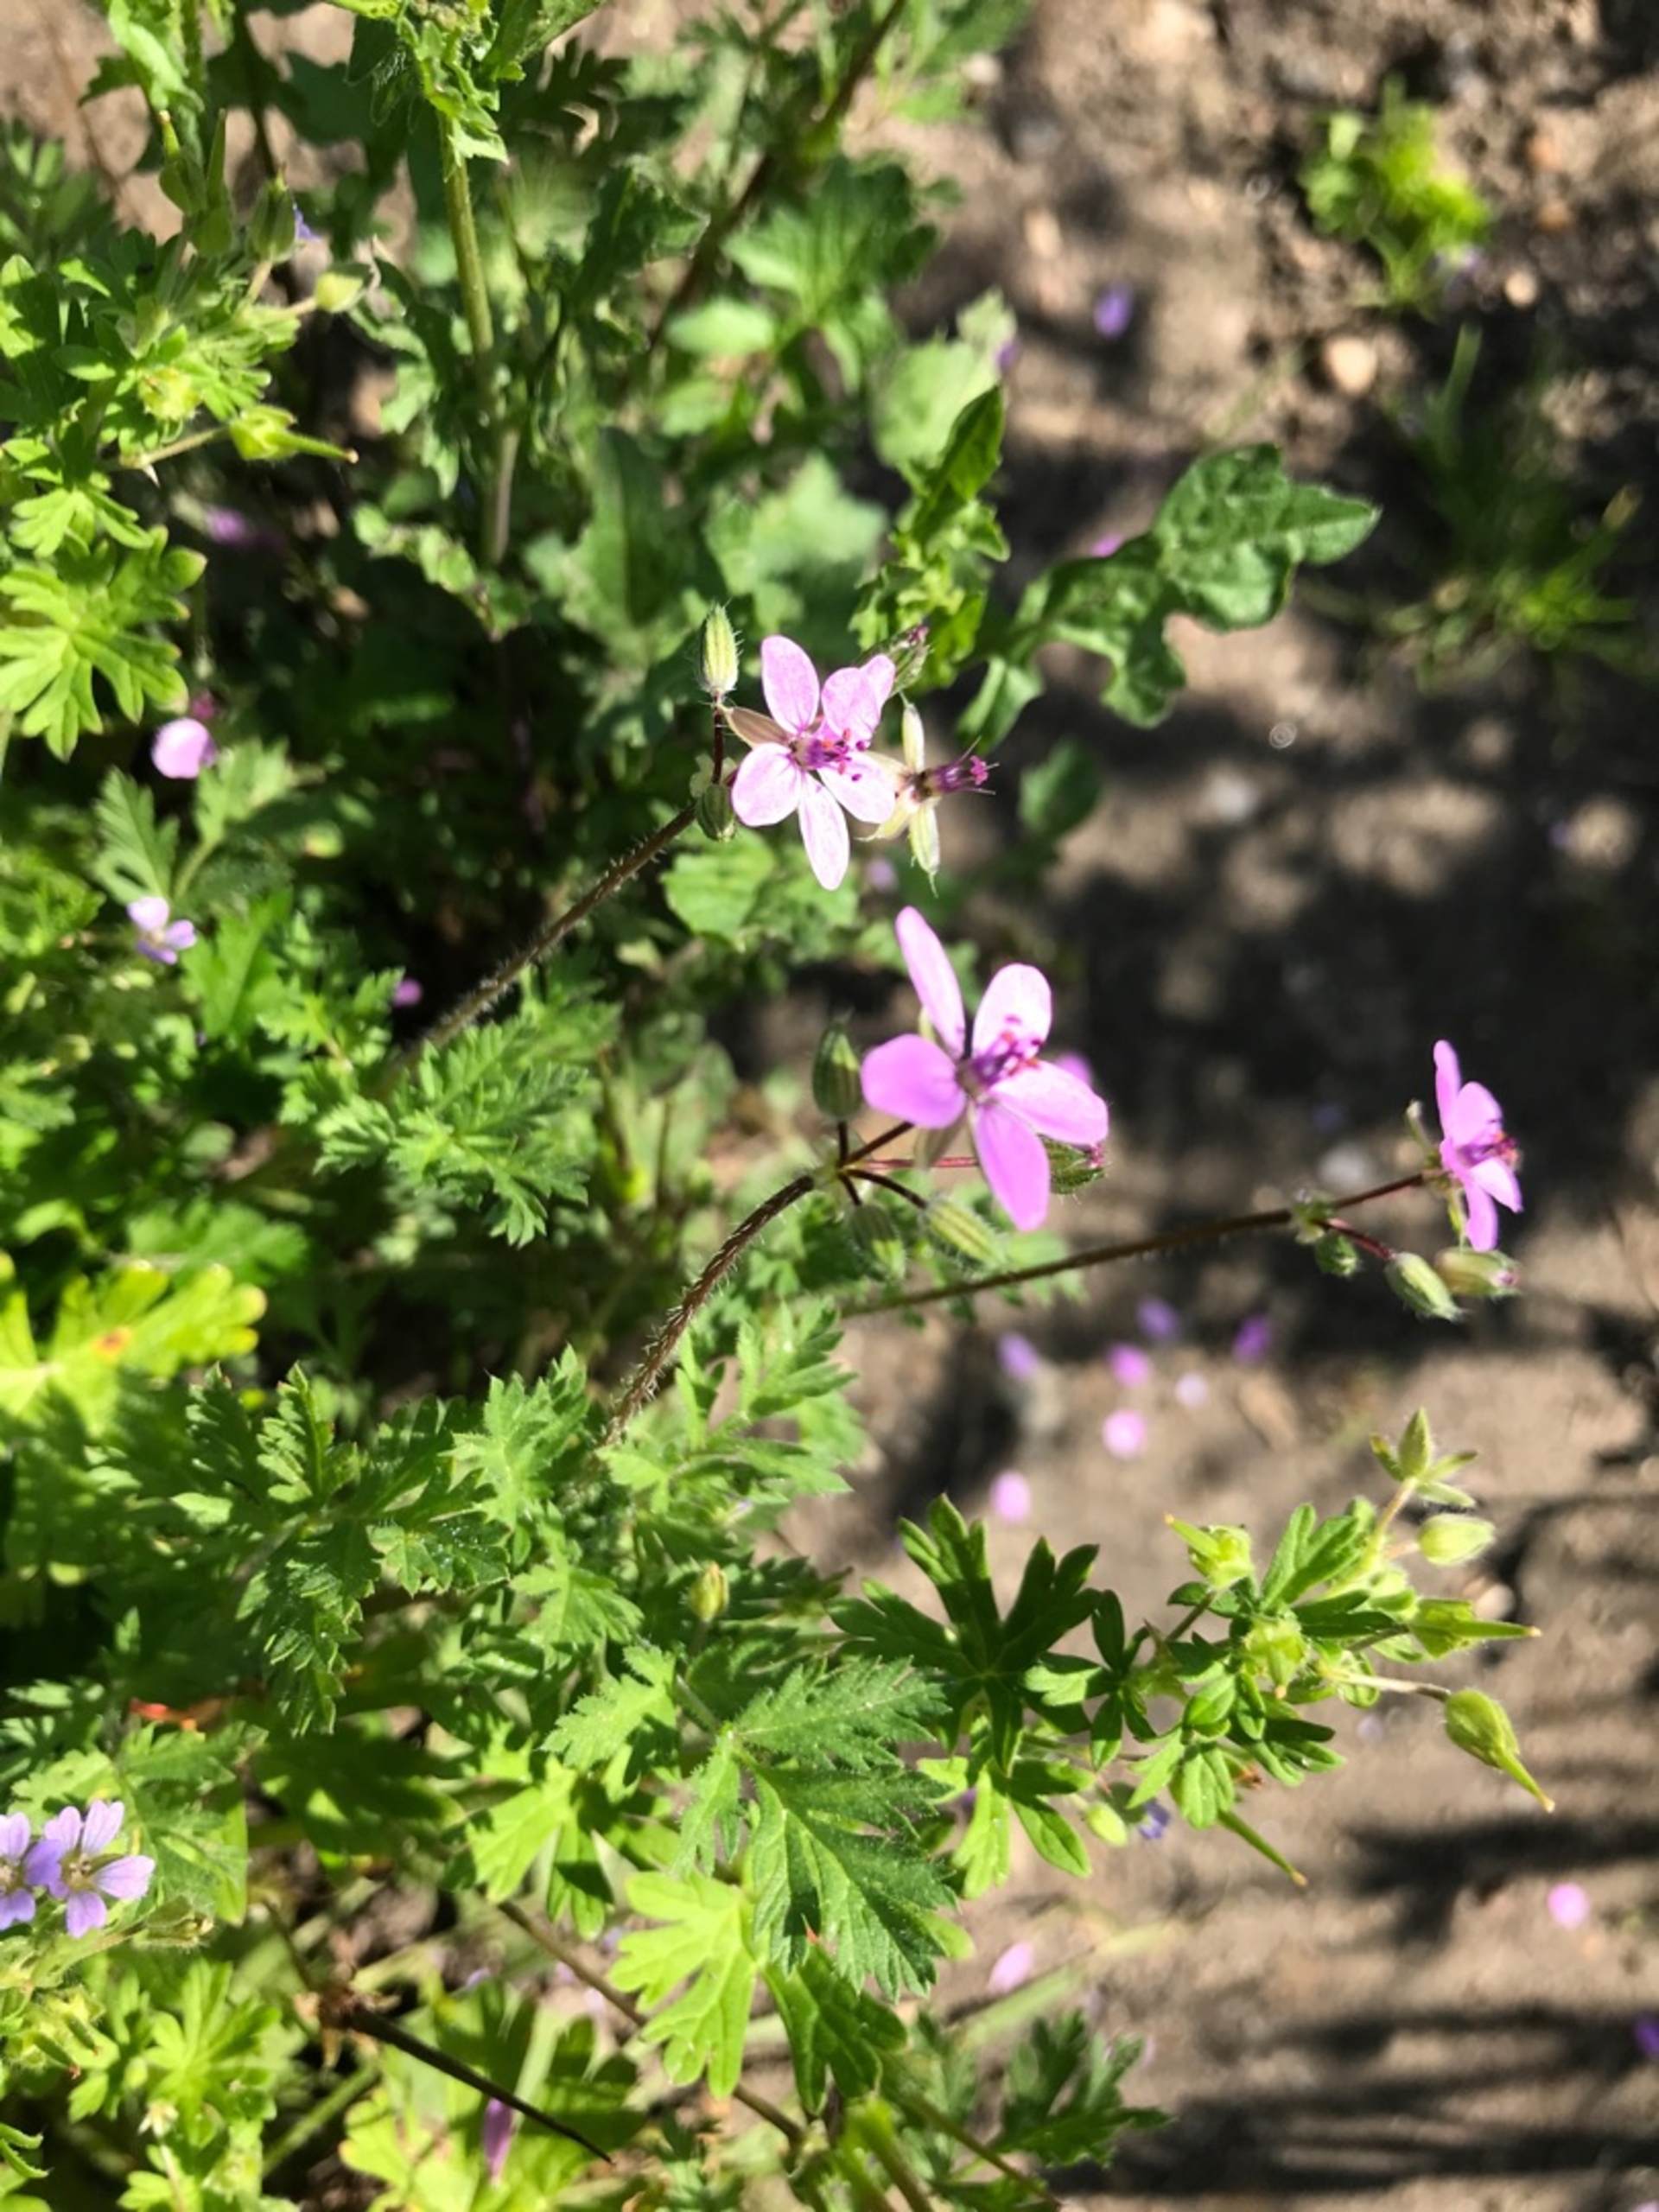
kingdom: Plantae
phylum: Tracheophyta
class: Magnoliopsida
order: Geraniales
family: Geraniaceae
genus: Erodium
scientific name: Erodium cicutarium
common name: Hejrenæb
